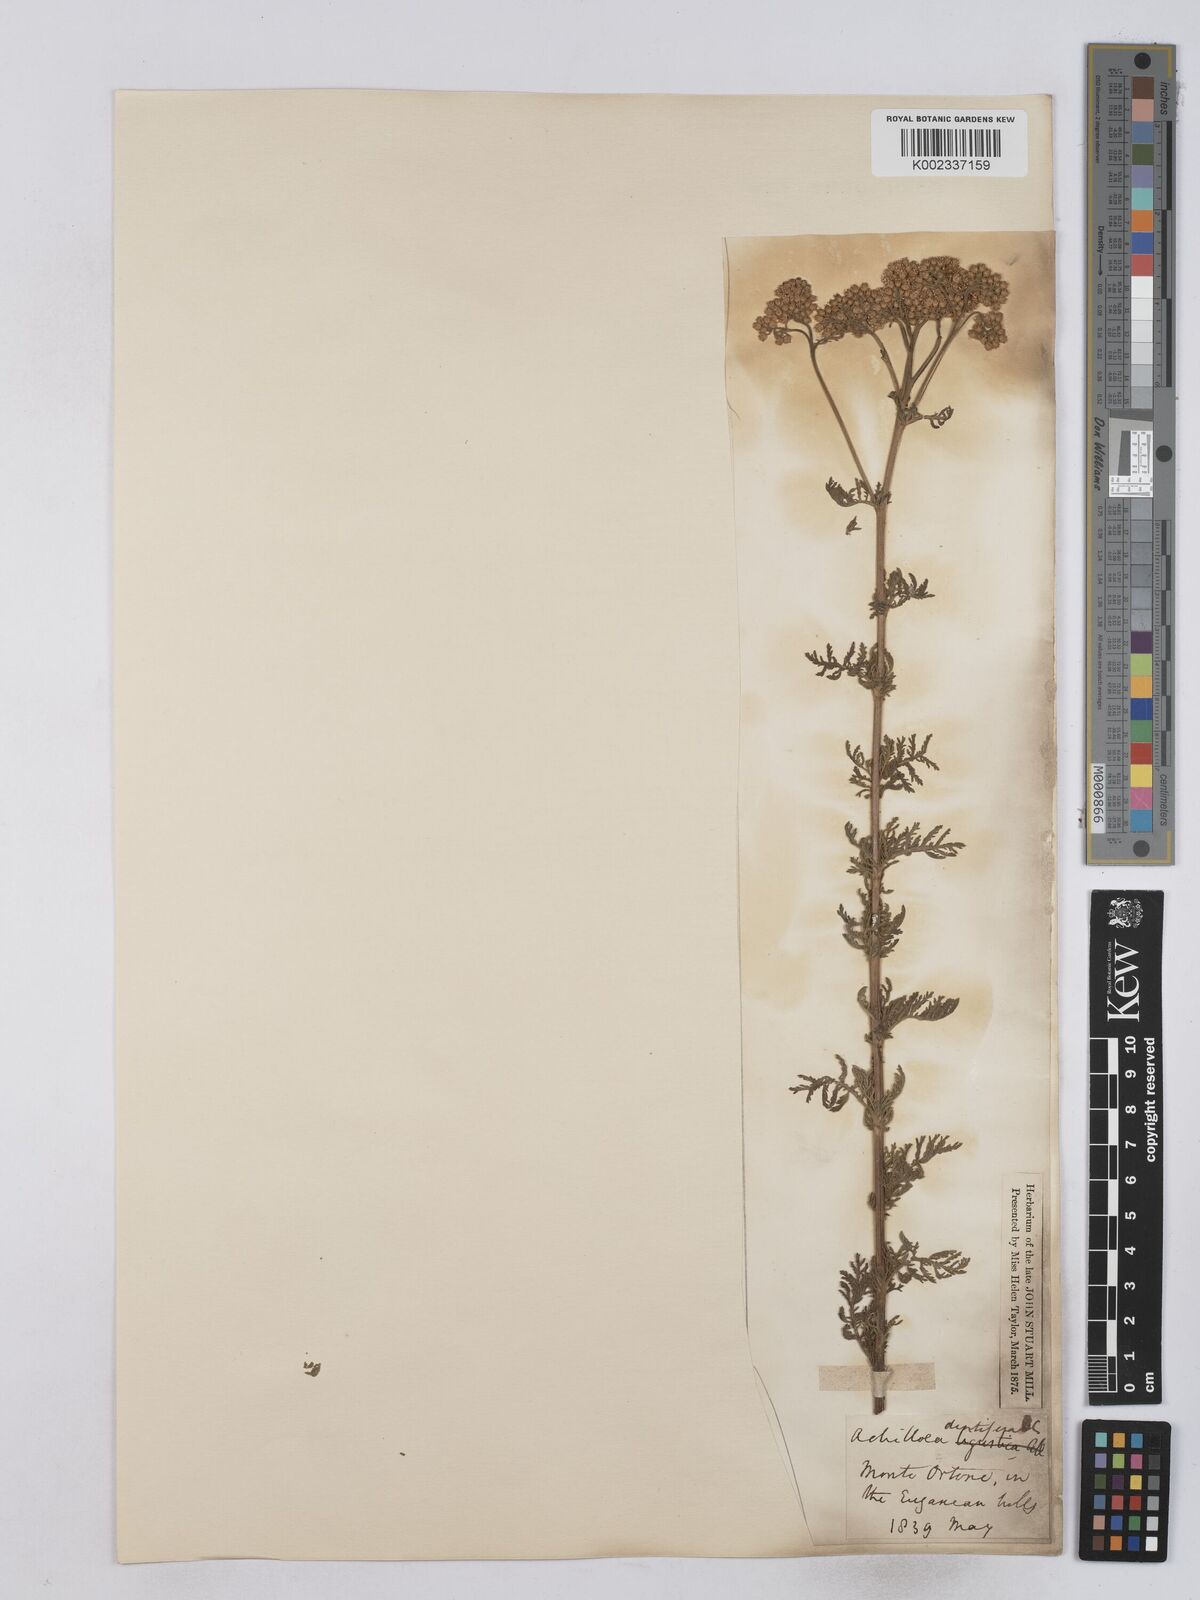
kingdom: Plantae
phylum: Tracheophyta
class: Magnoliopsida
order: Asterales
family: Asteraceae
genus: Achillea
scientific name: Achillea ligustica
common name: Southern yarrow
